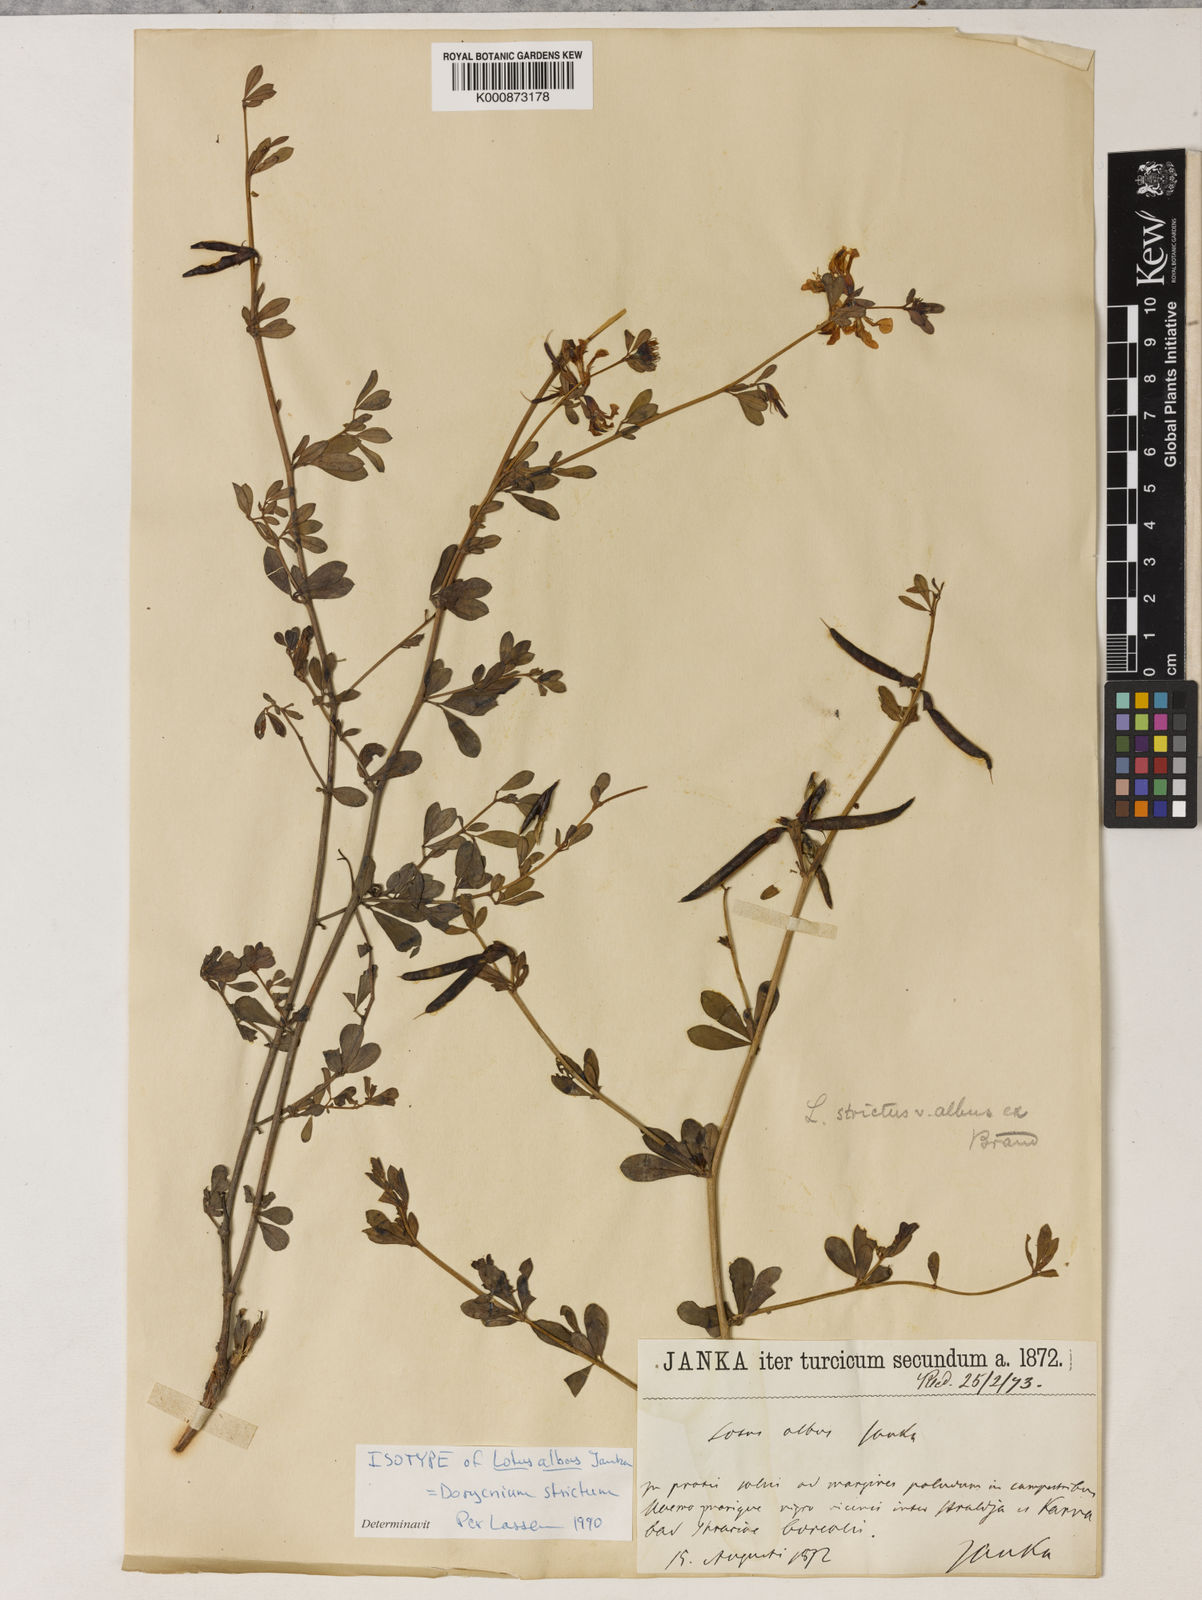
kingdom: Plantae
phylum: Tracheophyta
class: Magnoliopsida
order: Fabales
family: Fabaceae
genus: Lotus
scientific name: Lotus strictus
